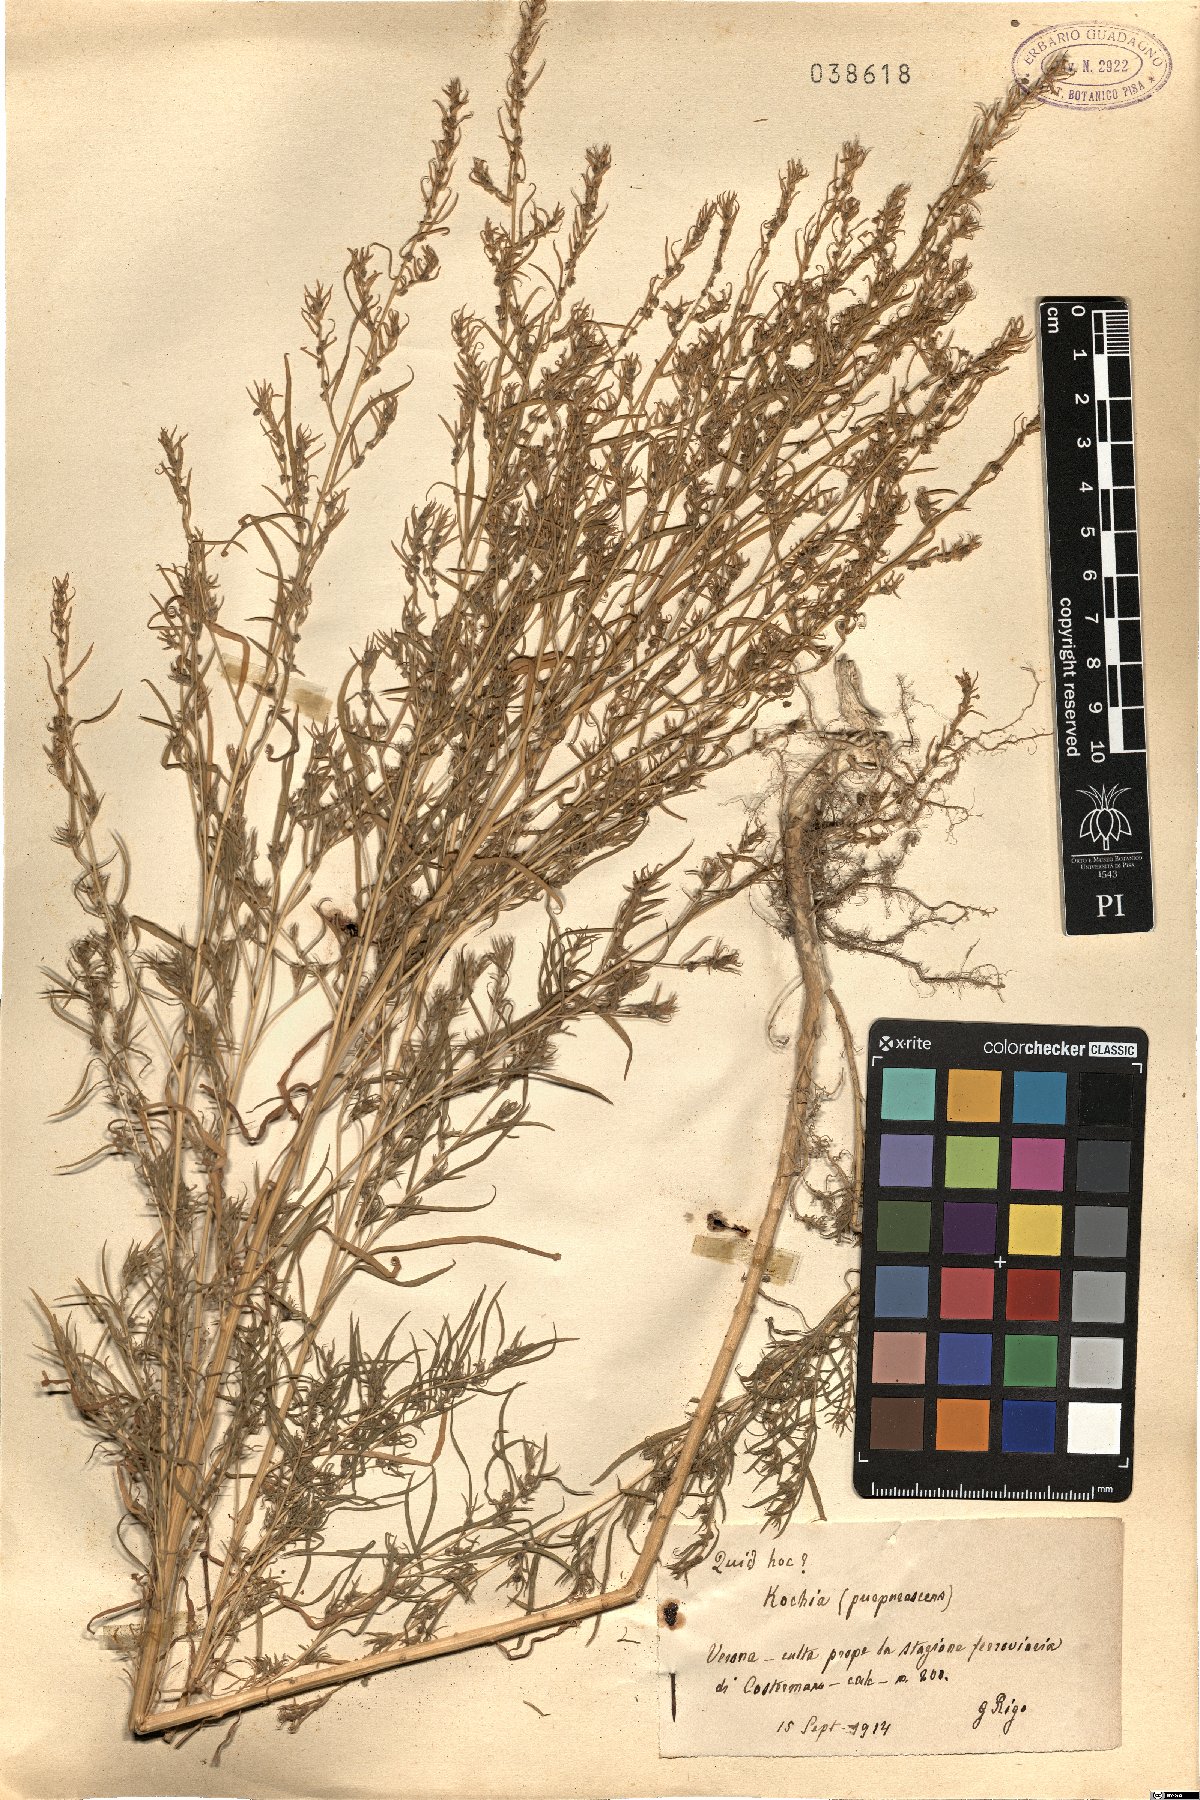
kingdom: Plantae
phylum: Tracheophyta
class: Magnoliopsida
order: Caryophyllales
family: Amaranthaceae
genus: Bassia
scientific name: Bassia
